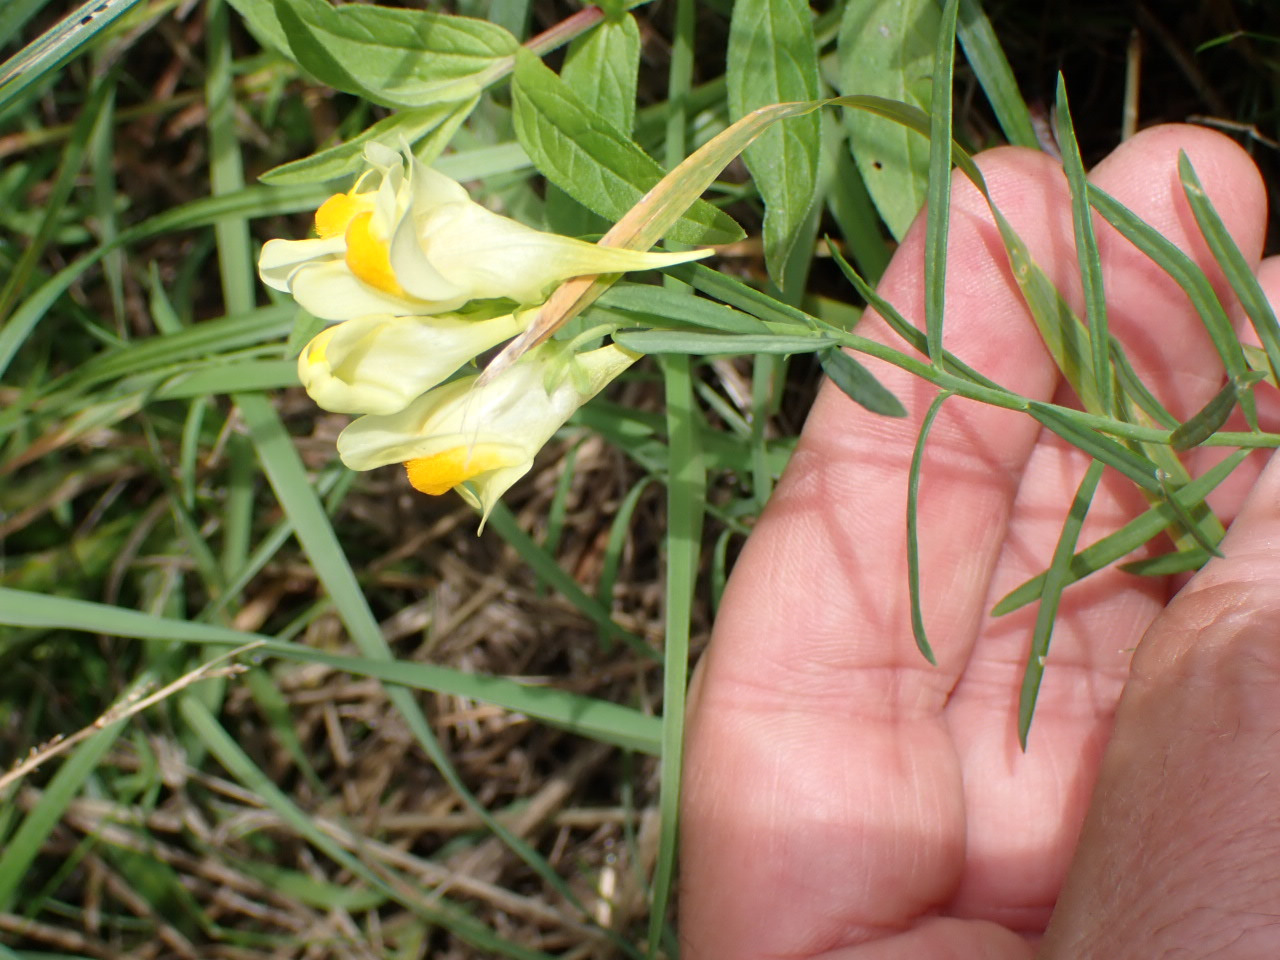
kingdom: Plantae
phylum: Tracheophyta
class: Magnoliopsida
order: Lamiales
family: Plantaginaceae
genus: Linaria
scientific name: Linaria vulgaris
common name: Almindelig torskemund
